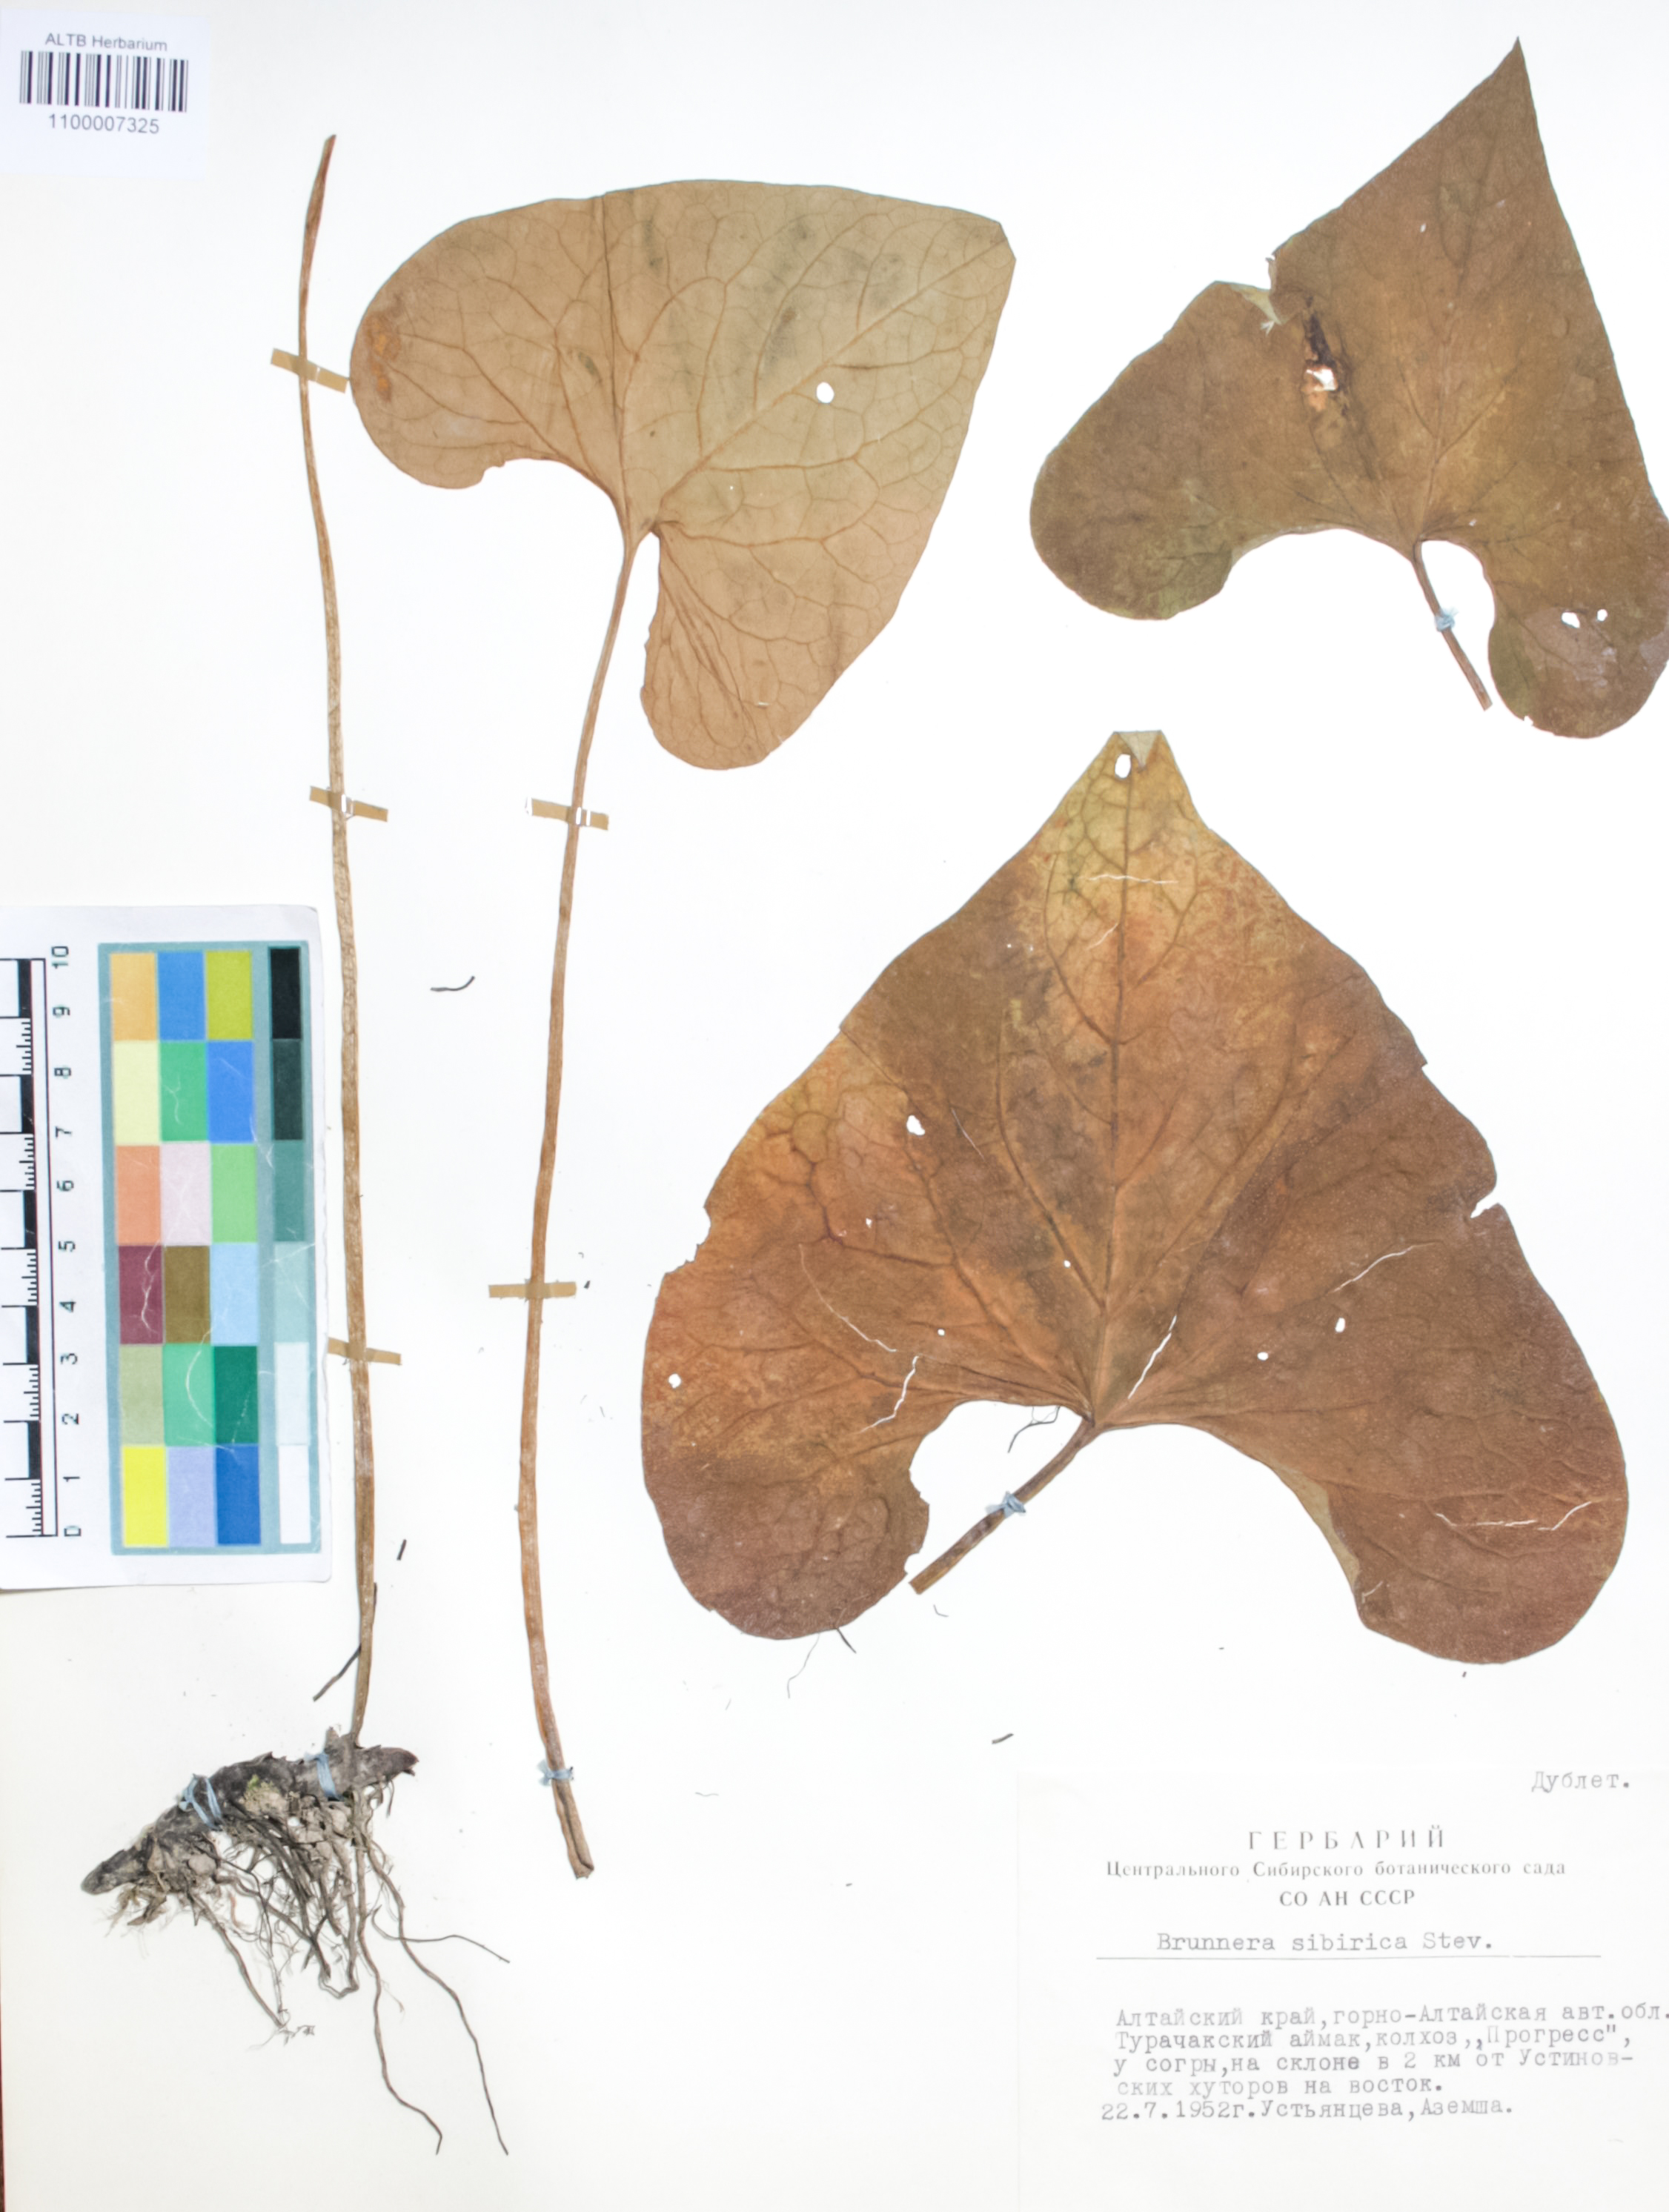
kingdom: Plantae
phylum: Tracheophyta
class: Magnoliopsida
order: Boraginales
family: Boraginaceae
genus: Brunnera
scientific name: Brunnera sibirica
